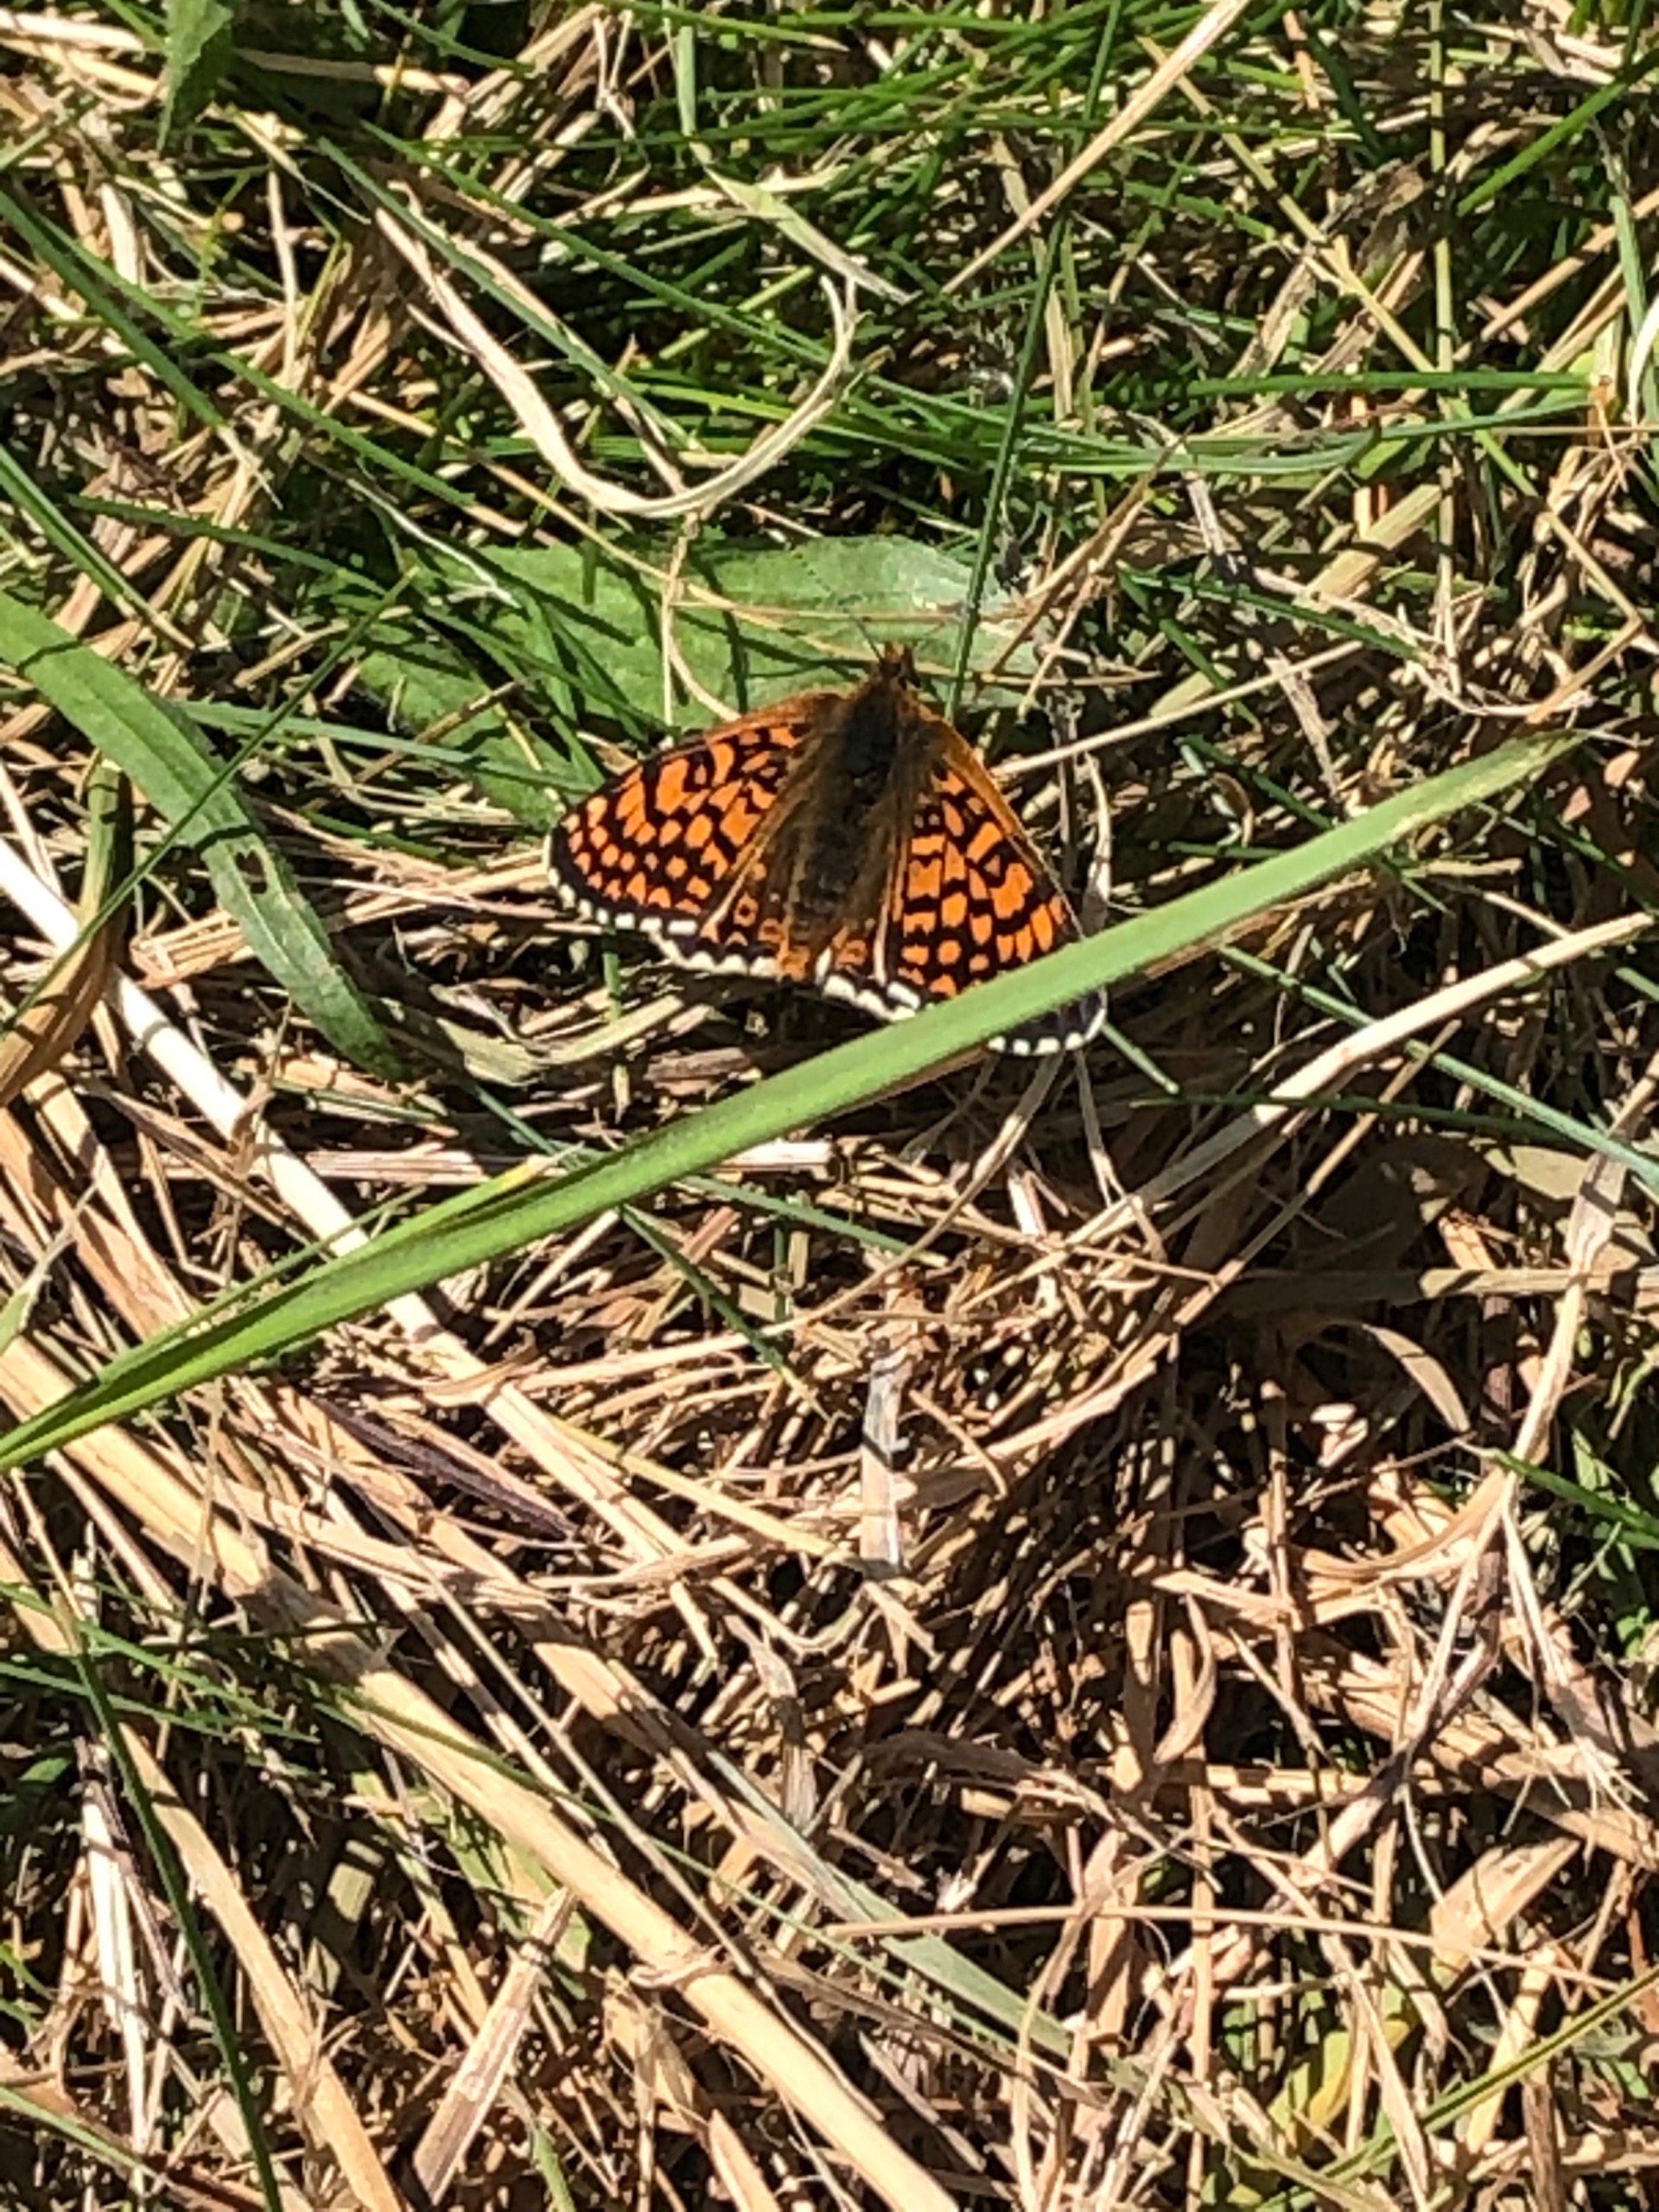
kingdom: Animalia
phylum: Arthropoda
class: Insecta
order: Lepidoptera
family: Nymphalidae
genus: Melitaea
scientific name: Melitaea cinxia
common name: Okkergul pletvinge
